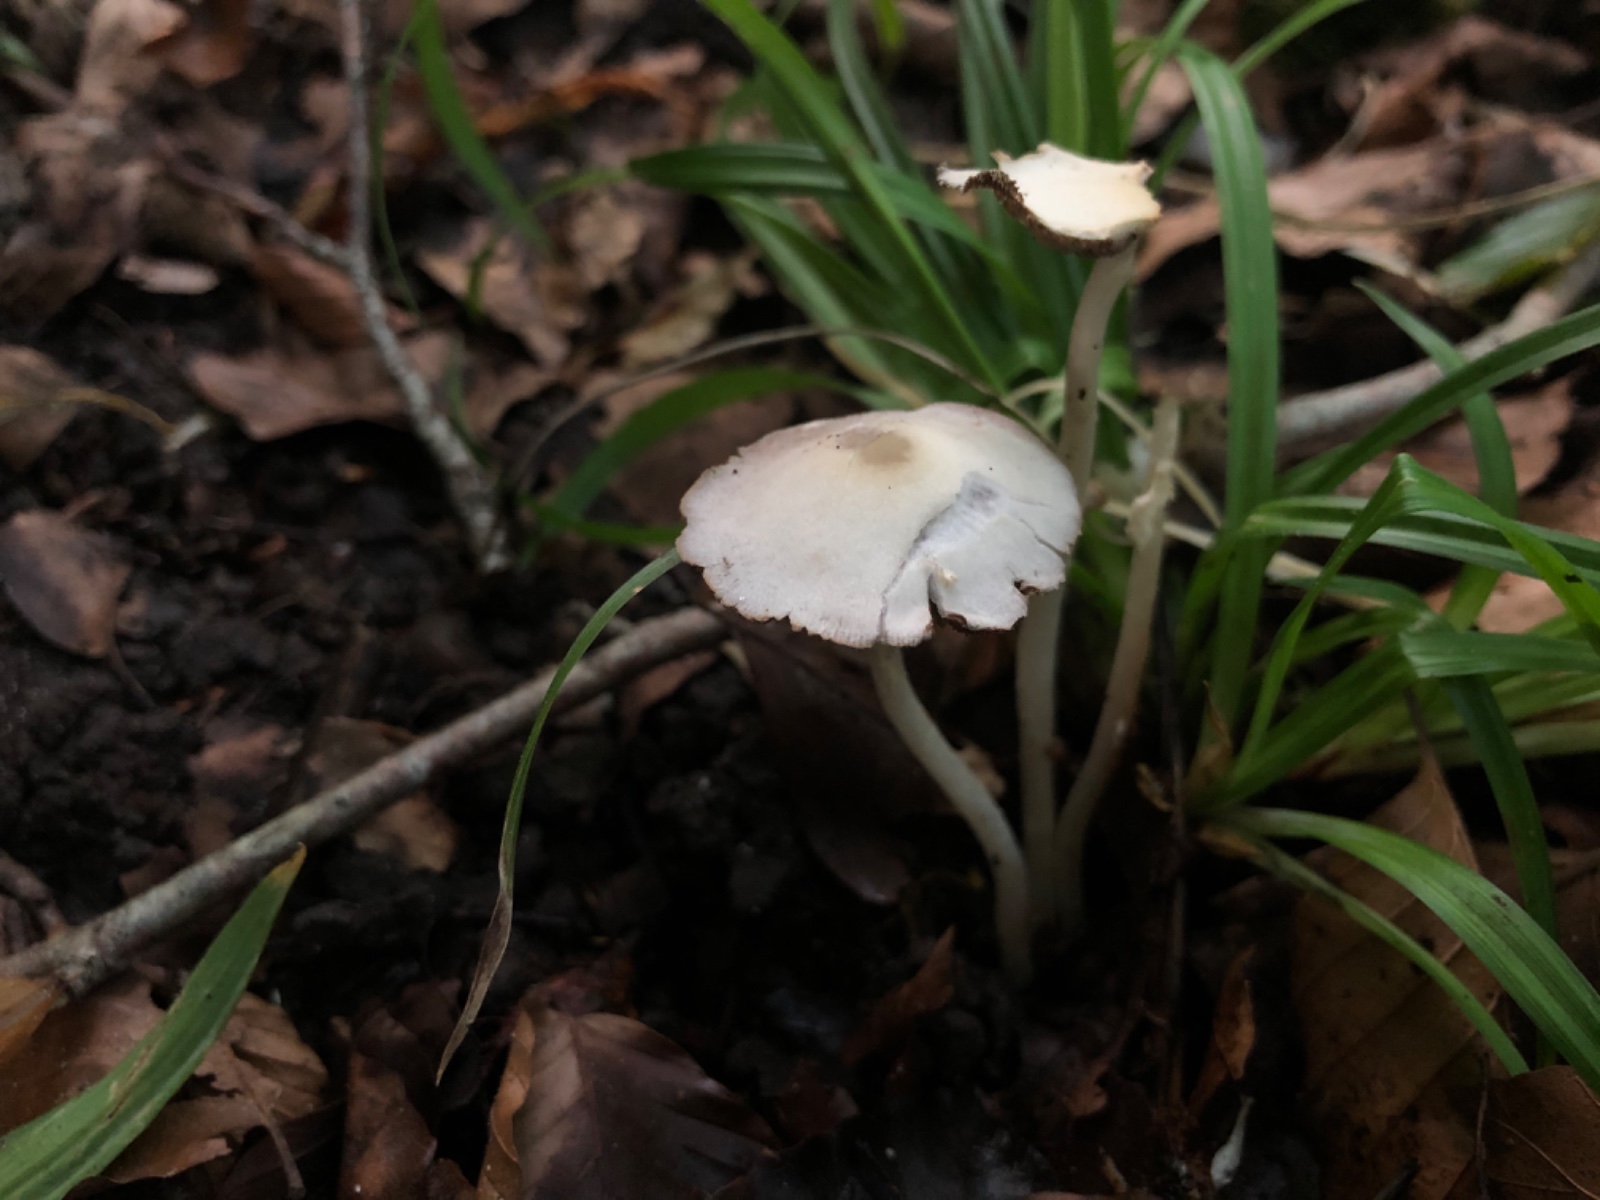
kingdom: Fungi
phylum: Basidiomycota
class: Agaricomycetes
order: Agaricales
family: Psathyrellaceae
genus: Candolleomyces
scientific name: Candolleomyces candolleanus
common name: Candolles mørkhat
